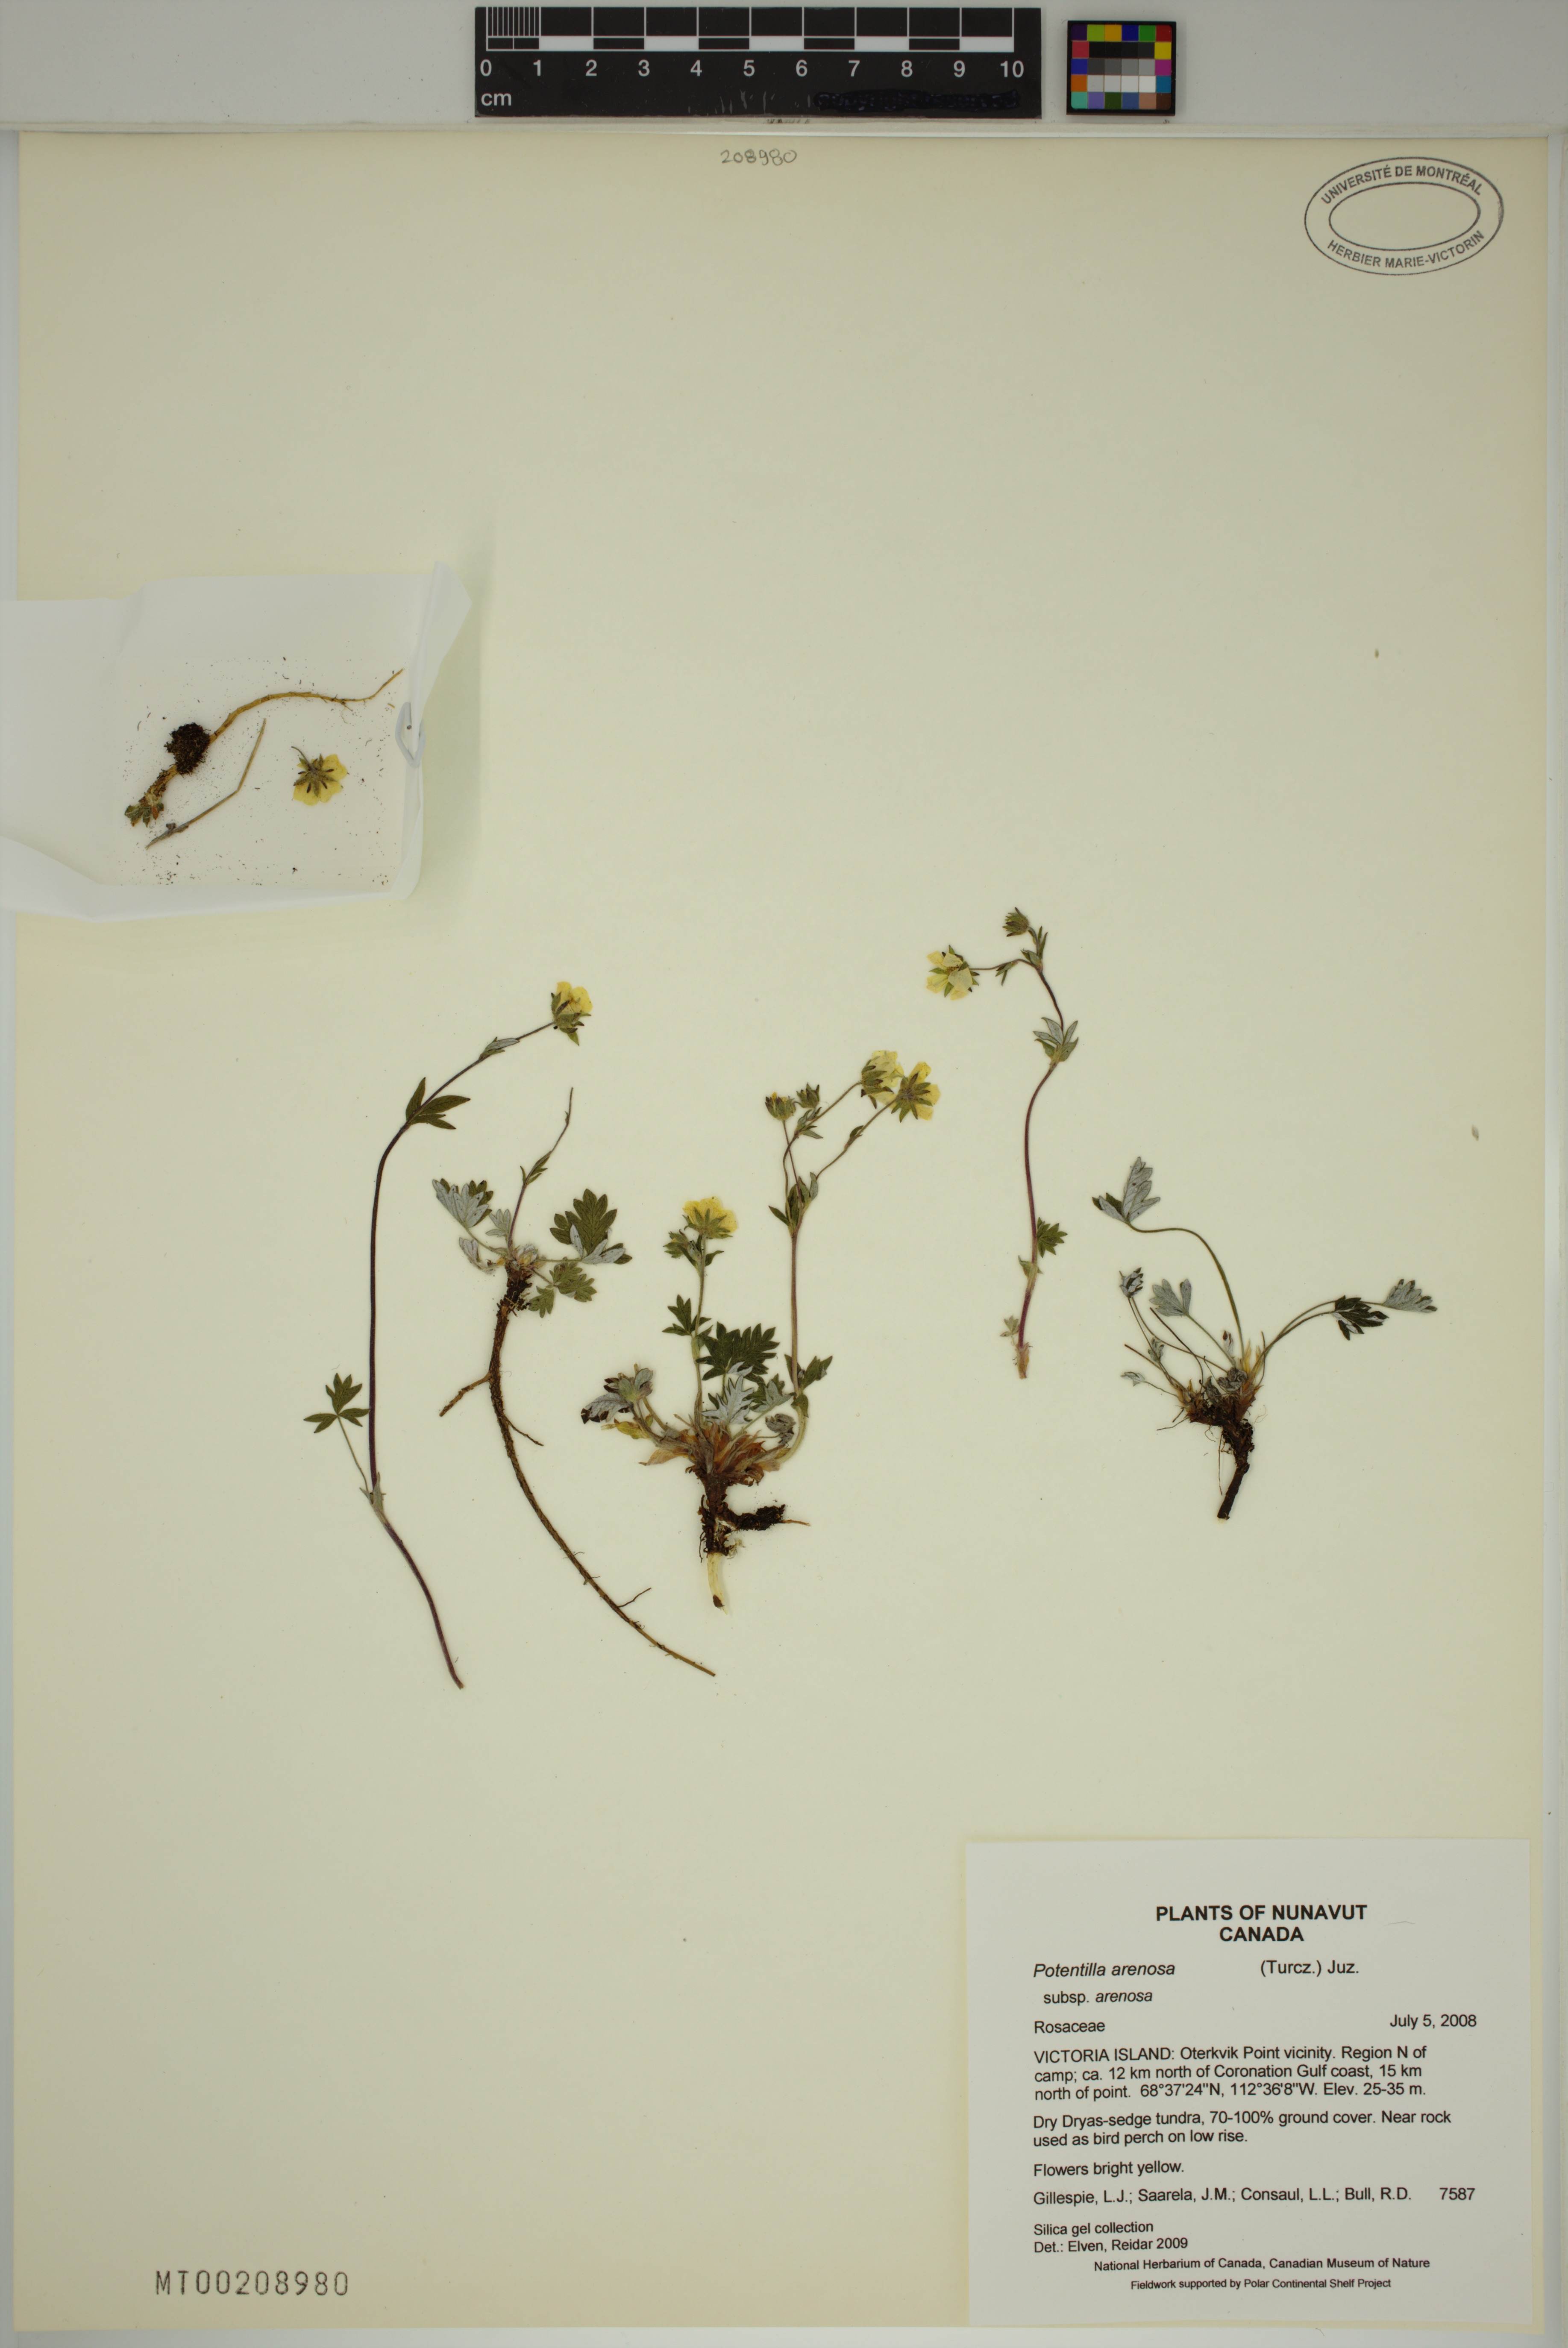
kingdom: Plantae
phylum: Tracheophyta
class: Magnoliopsida
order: Rosales
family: Rosaceae
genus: Potentilla
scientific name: Potentilla arenosa
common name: Bluff cinquefoil
